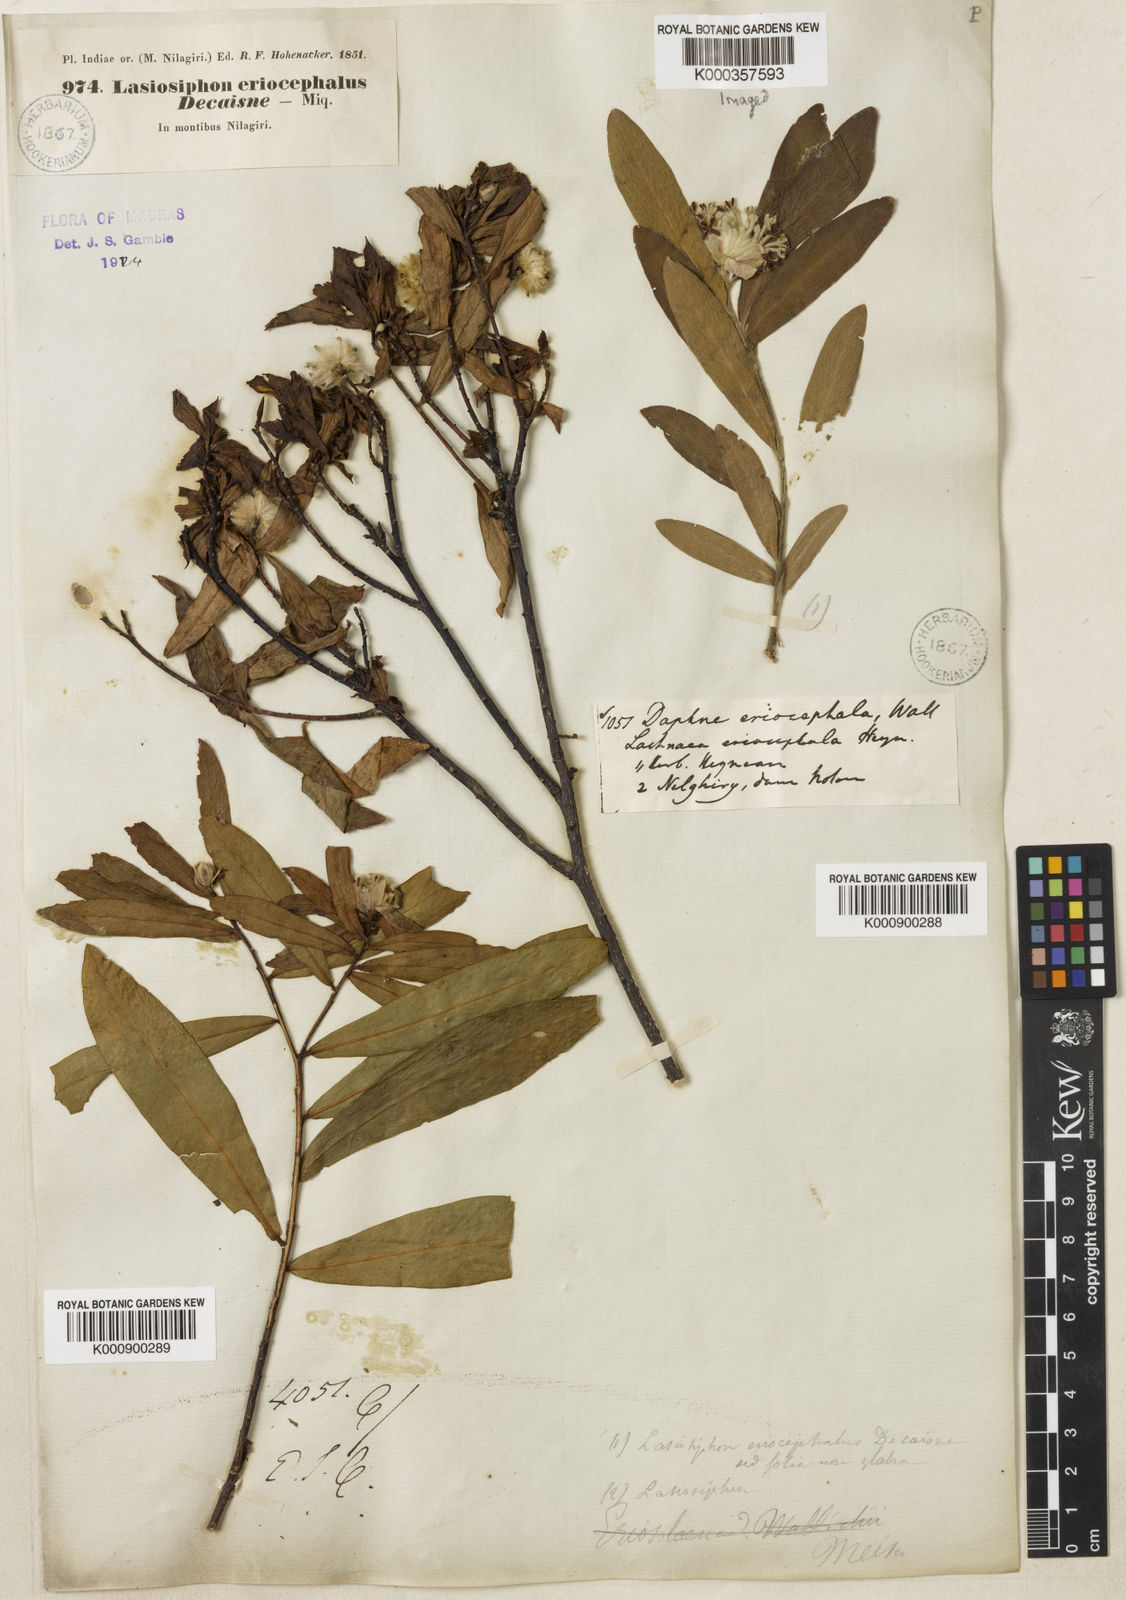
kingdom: Plantae
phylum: Tracheophyta
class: Magnoliopsida
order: Malvales
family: Thymelaeaceae
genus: Gnidia
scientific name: Gnidia glauca
